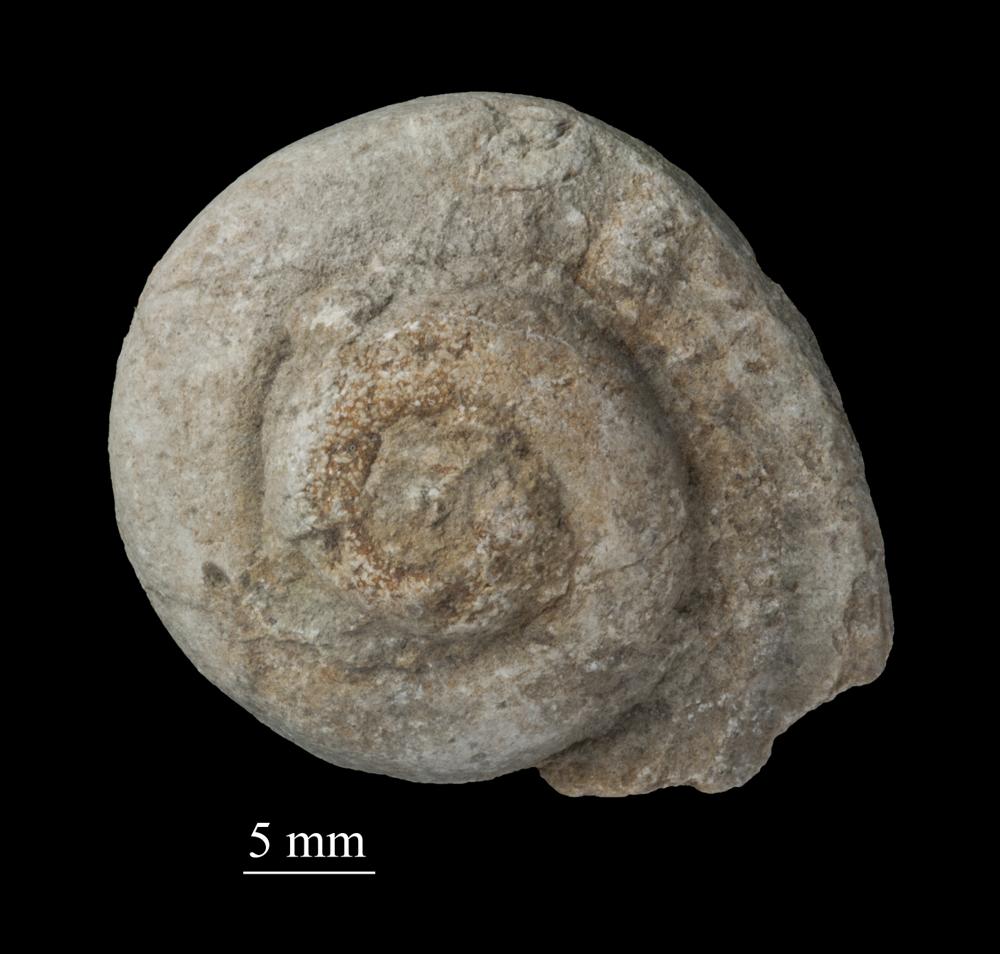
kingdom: Animalia
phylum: Mollusca
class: Gastropoda
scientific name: Gastropoda
